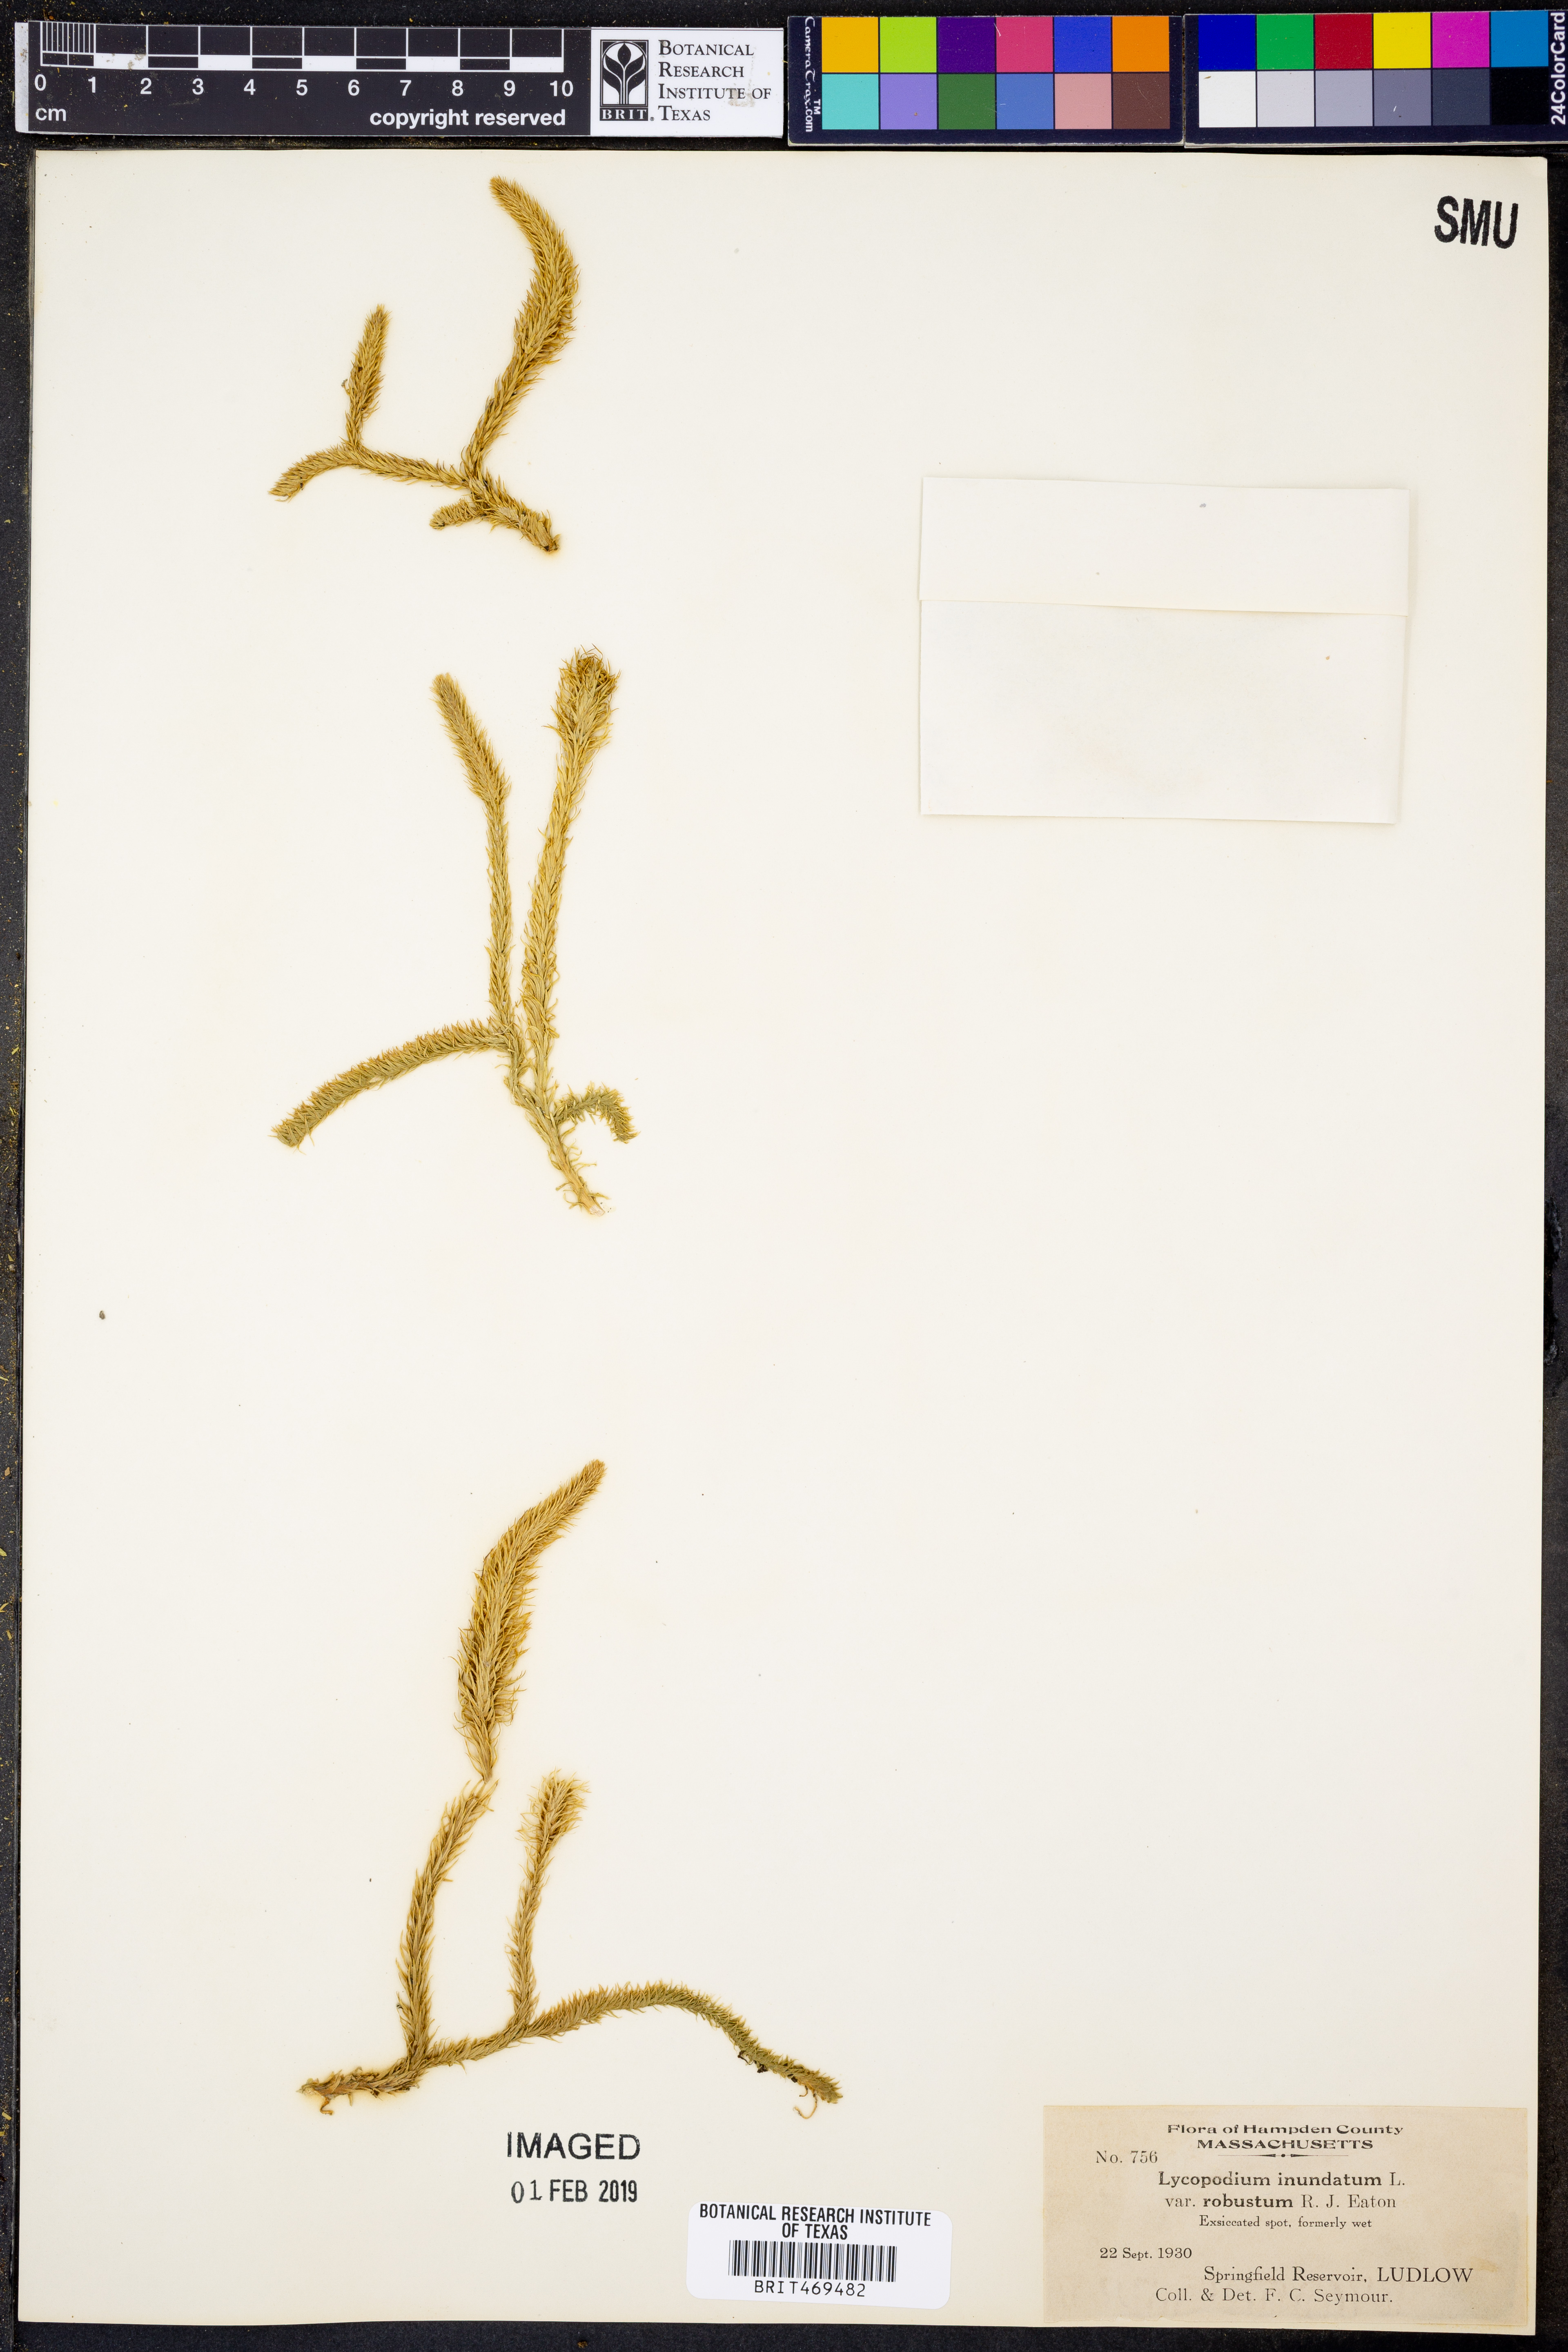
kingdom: Plantae
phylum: Tracheophyta
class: Lycopodiopsida
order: Lycopodiales
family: Lycopodiaceae
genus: Lycopodiella
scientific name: Lycopodiella robusta
